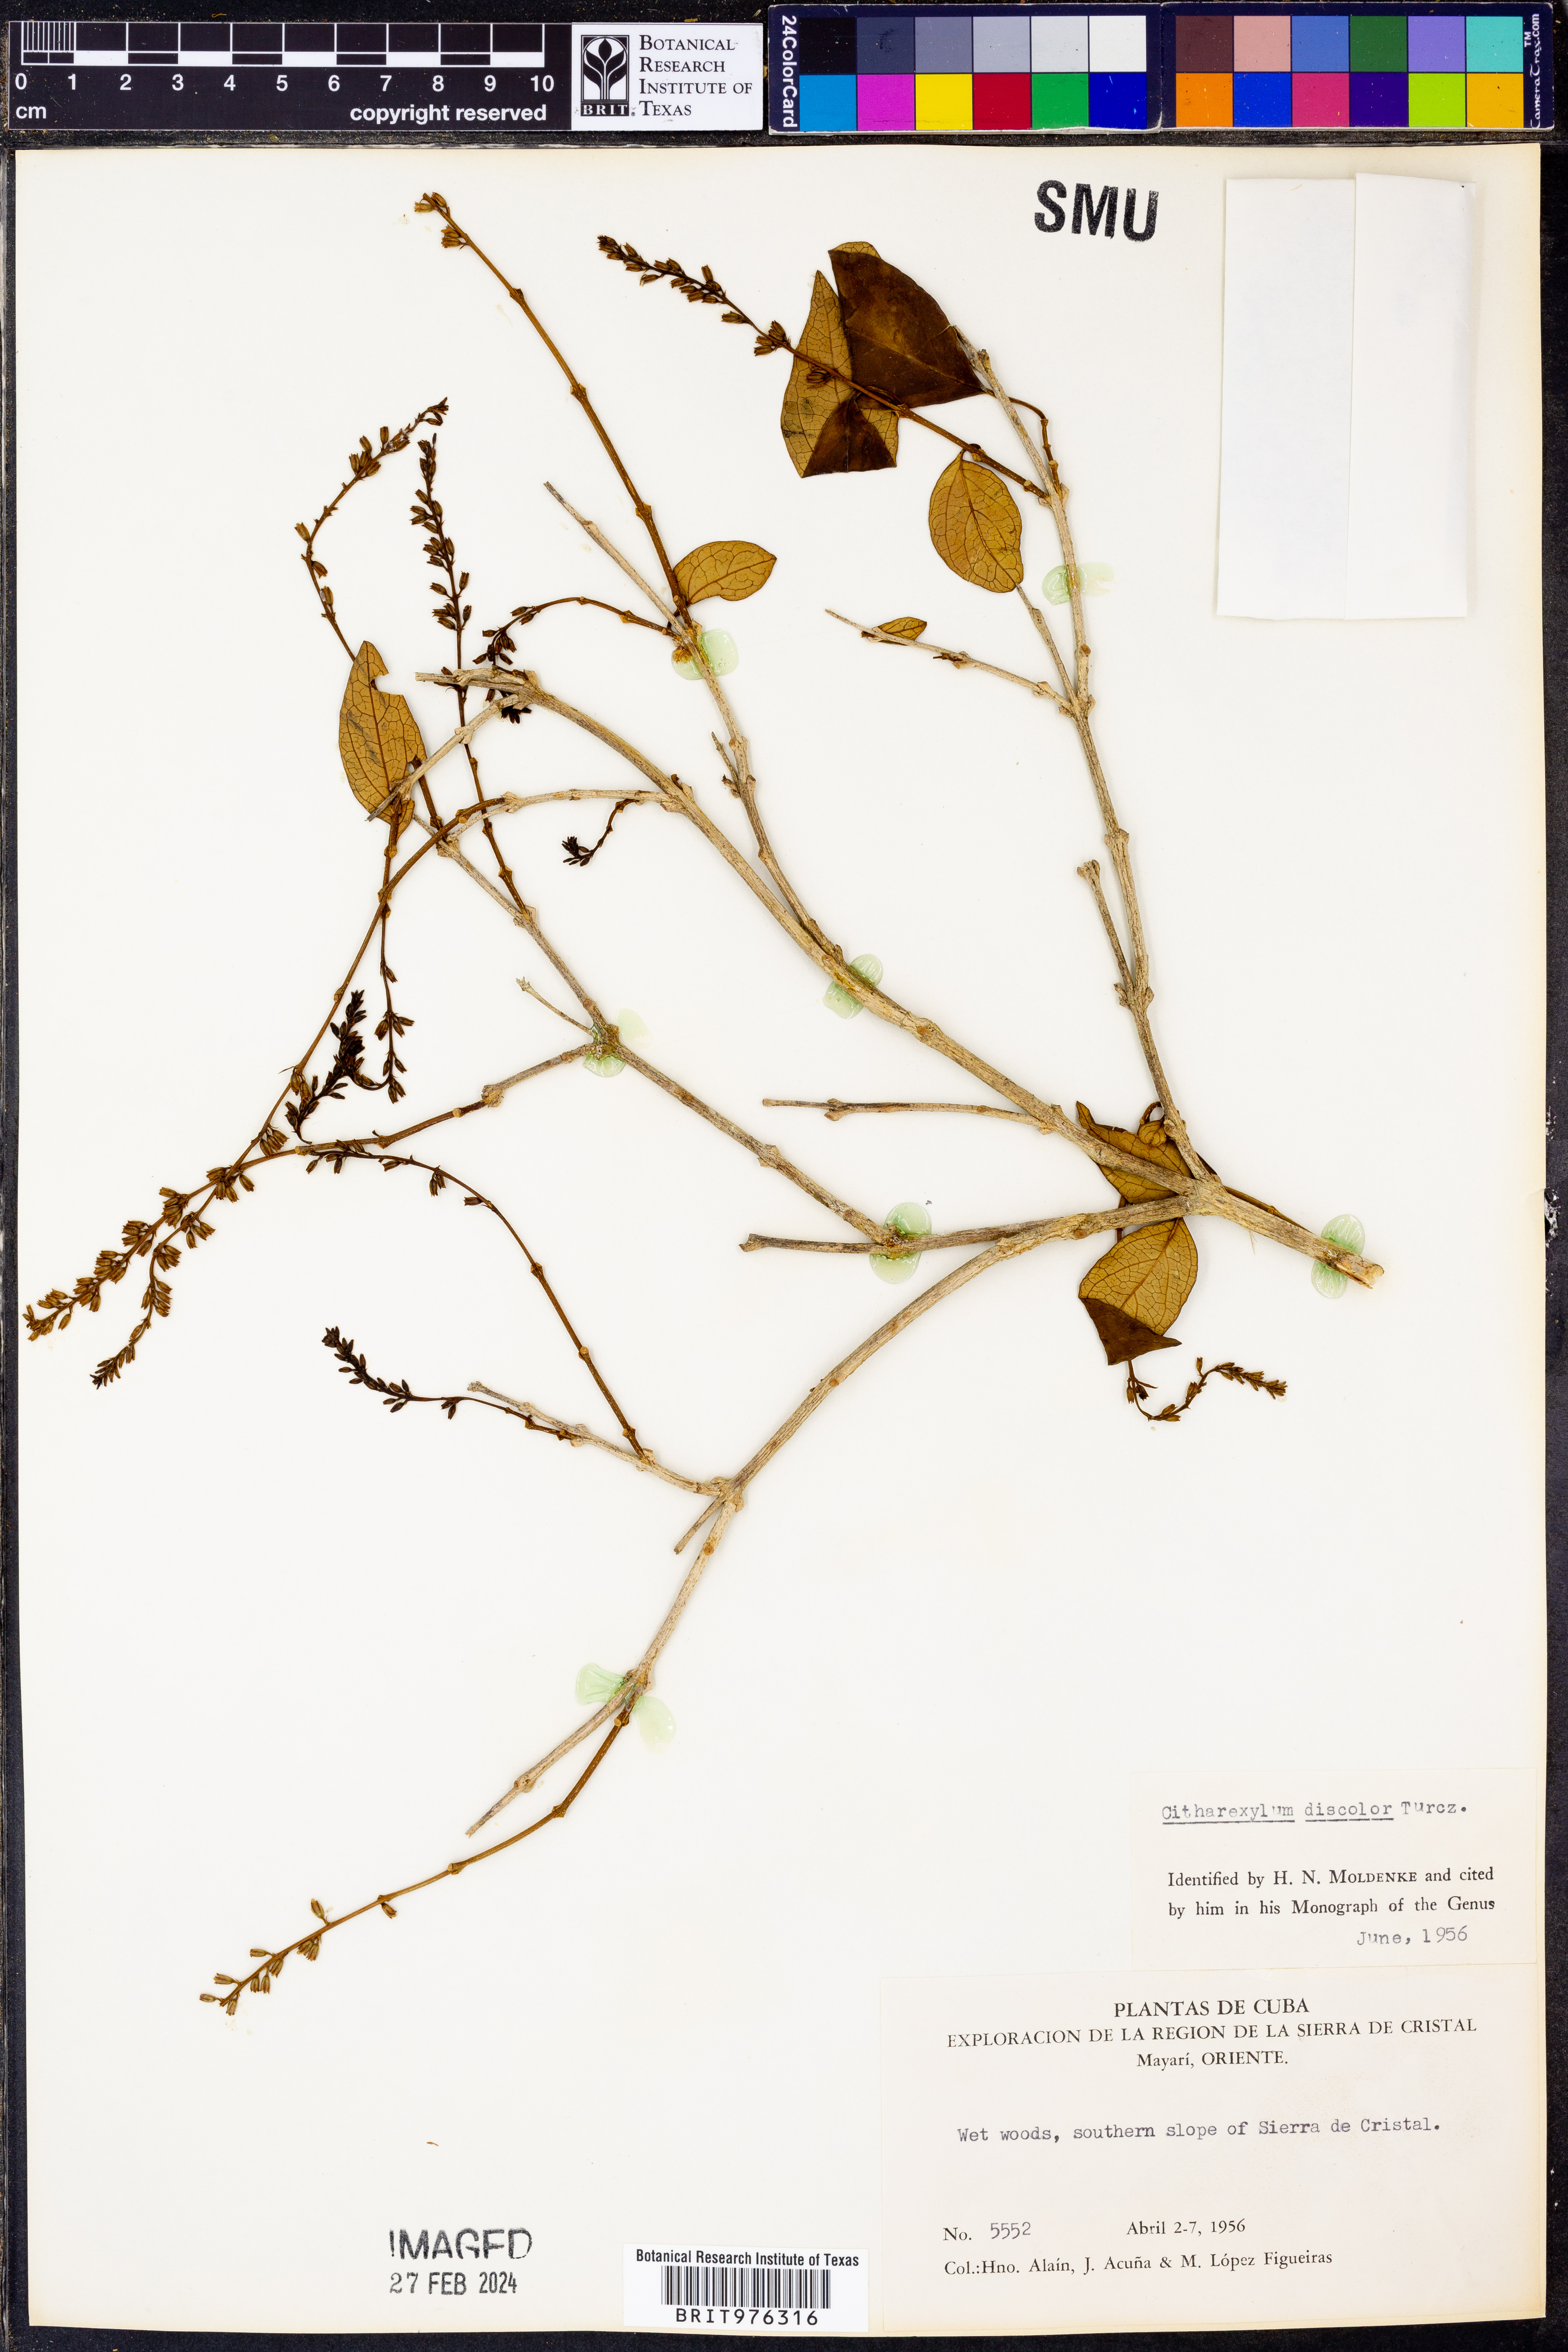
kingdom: Plantae
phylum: Tracheophyta
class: Magnoliopsida
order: Lamiales
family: Verbenaceae
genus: Citharexylum
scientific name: Citharexylum
